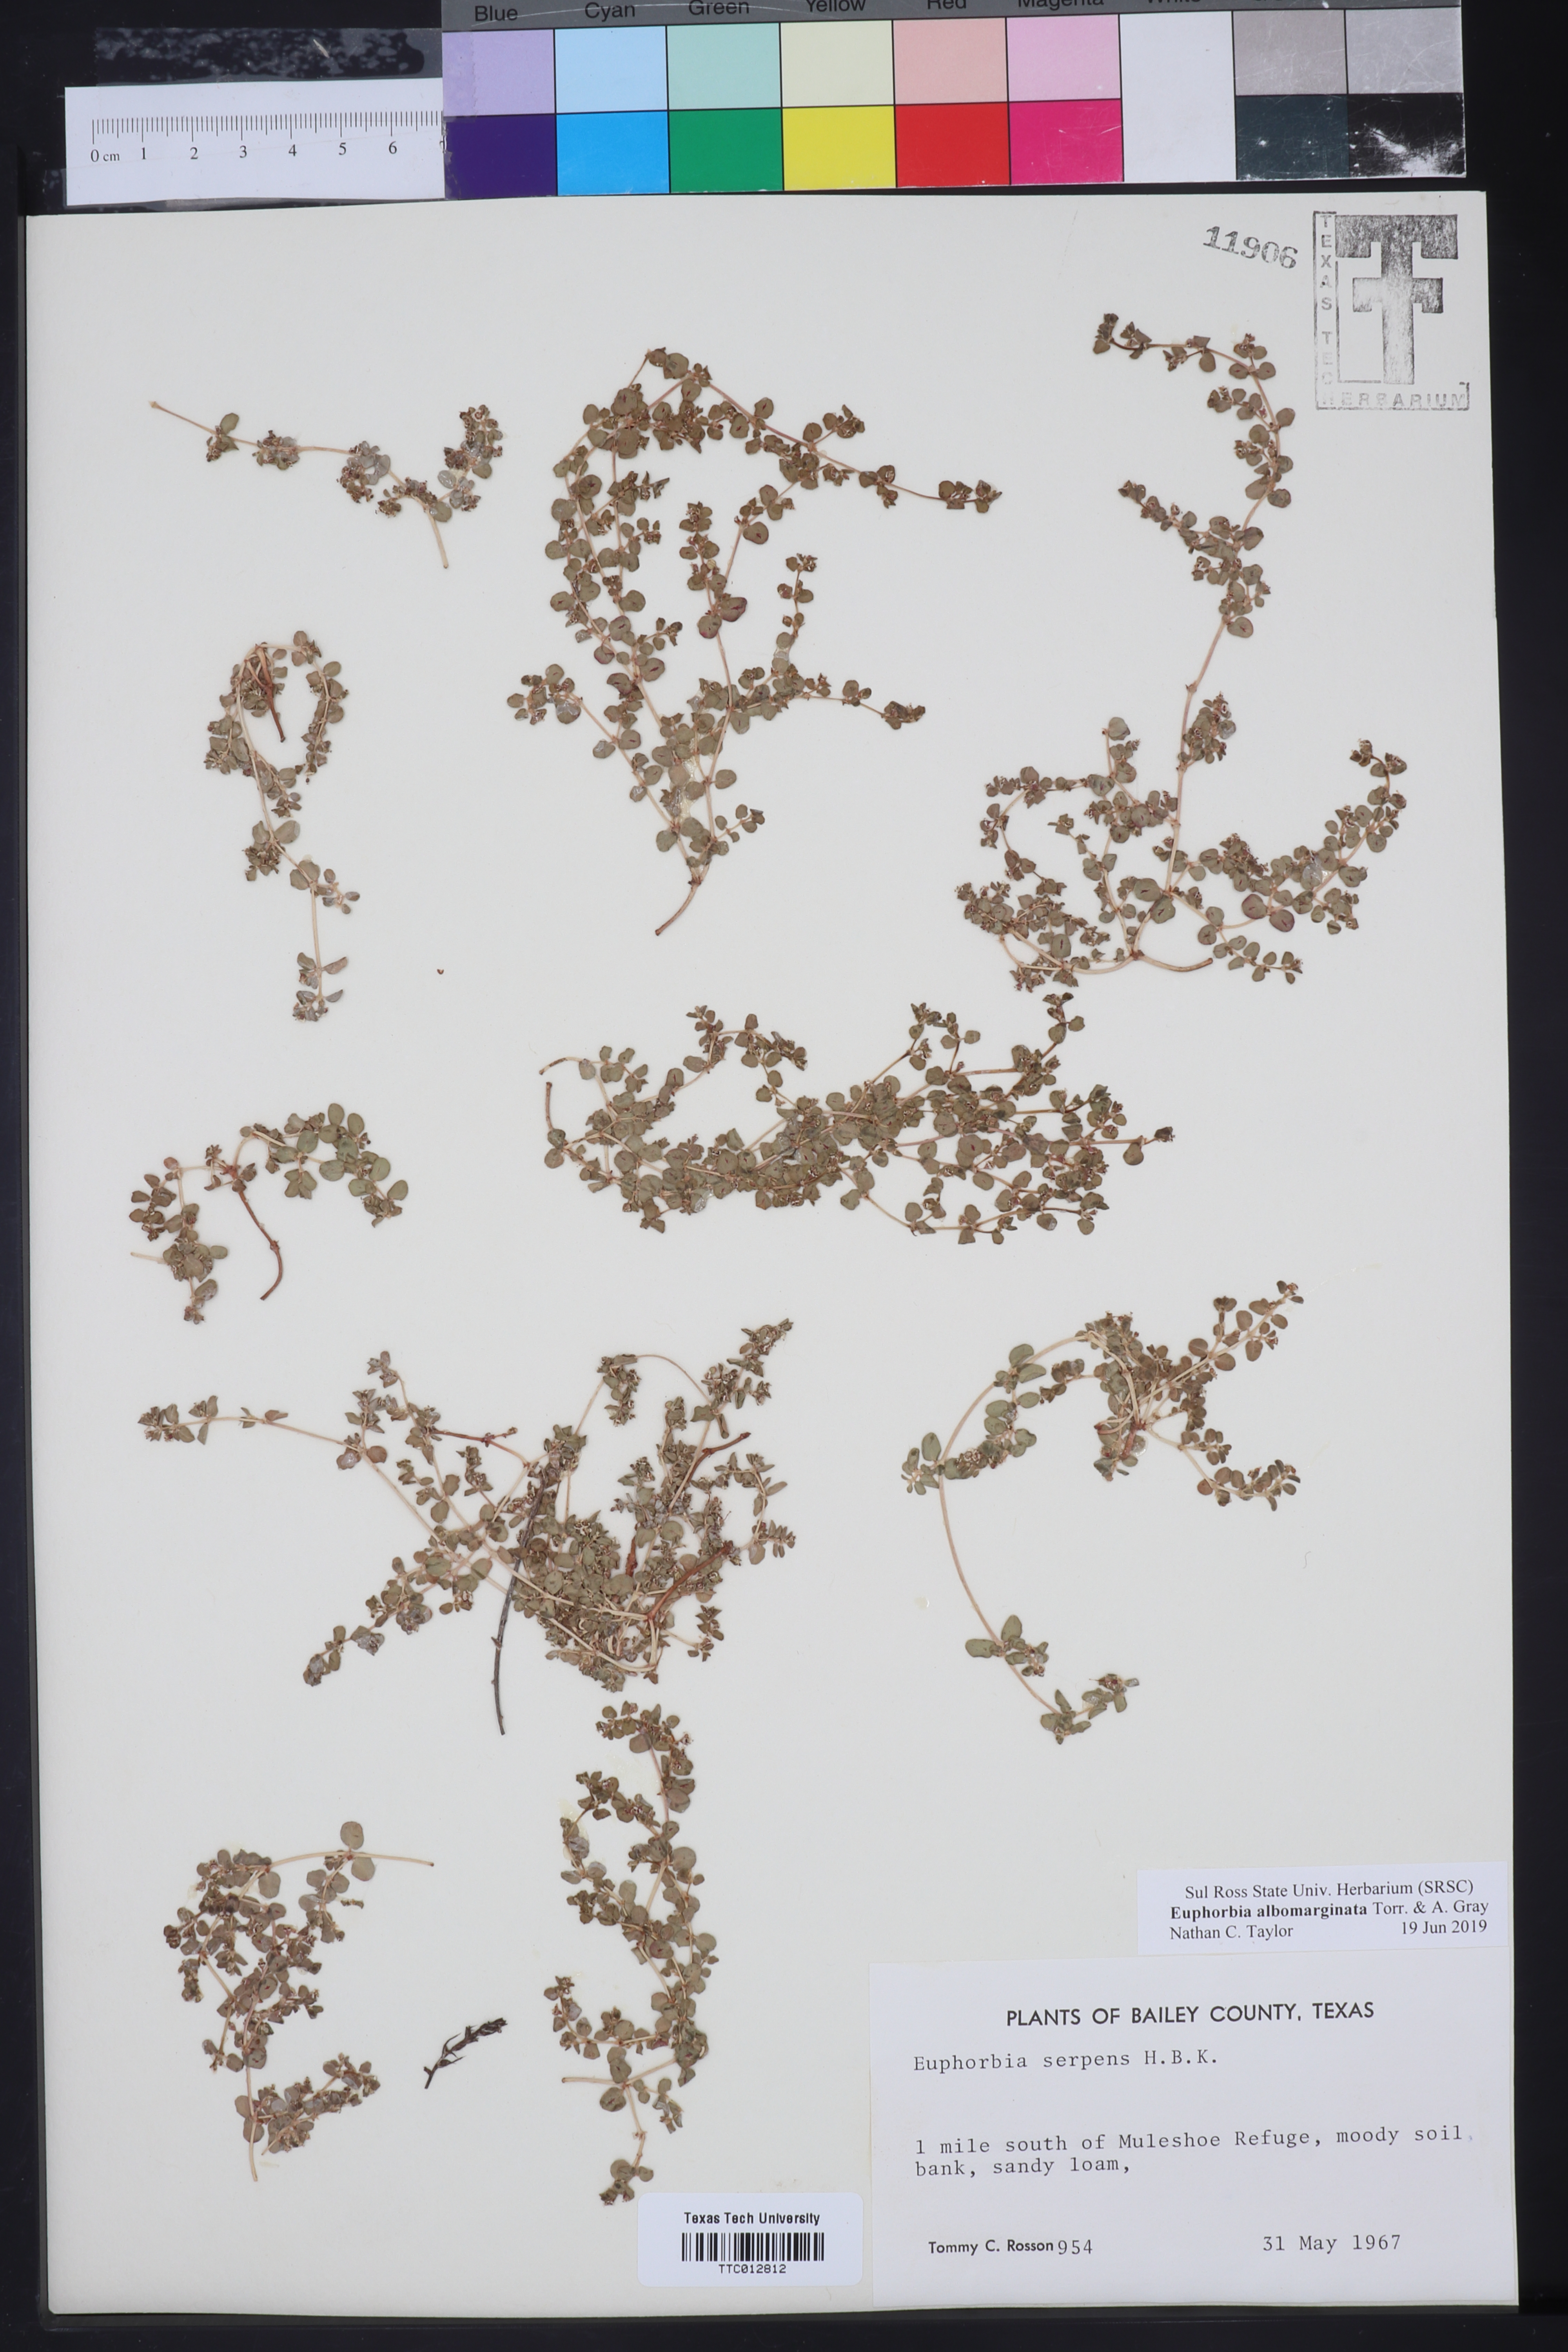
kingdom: Plantae
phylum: Tracheophyta
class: Magnoliopsida
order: Malpighiales
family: Euphorbiaceae
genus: Euphorbia
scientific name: Euphorbia albomarginata
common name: Whitemargin sandmat
